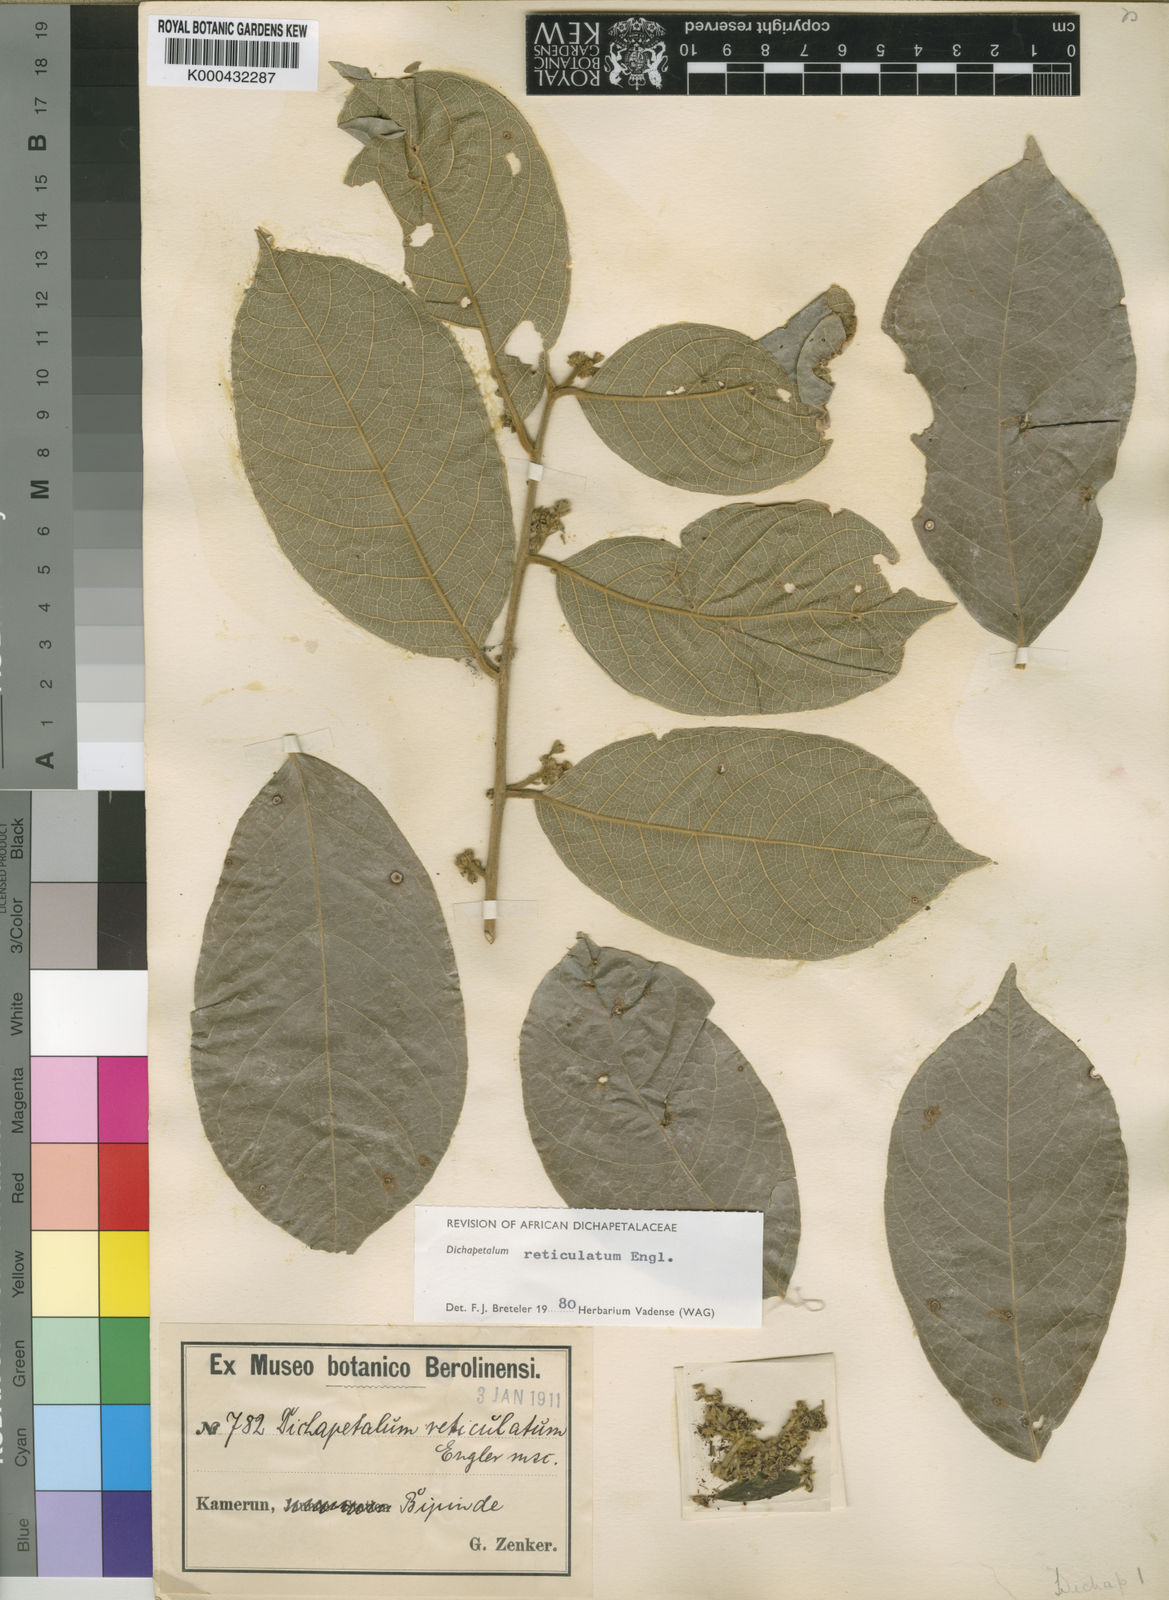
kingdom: Plantae
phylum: Tracheophyta
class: Magnoliopsida
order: Malpighiales
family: Dichapetalaceae
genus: Dichapetalum
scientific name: Dichapetalum reticulatum
